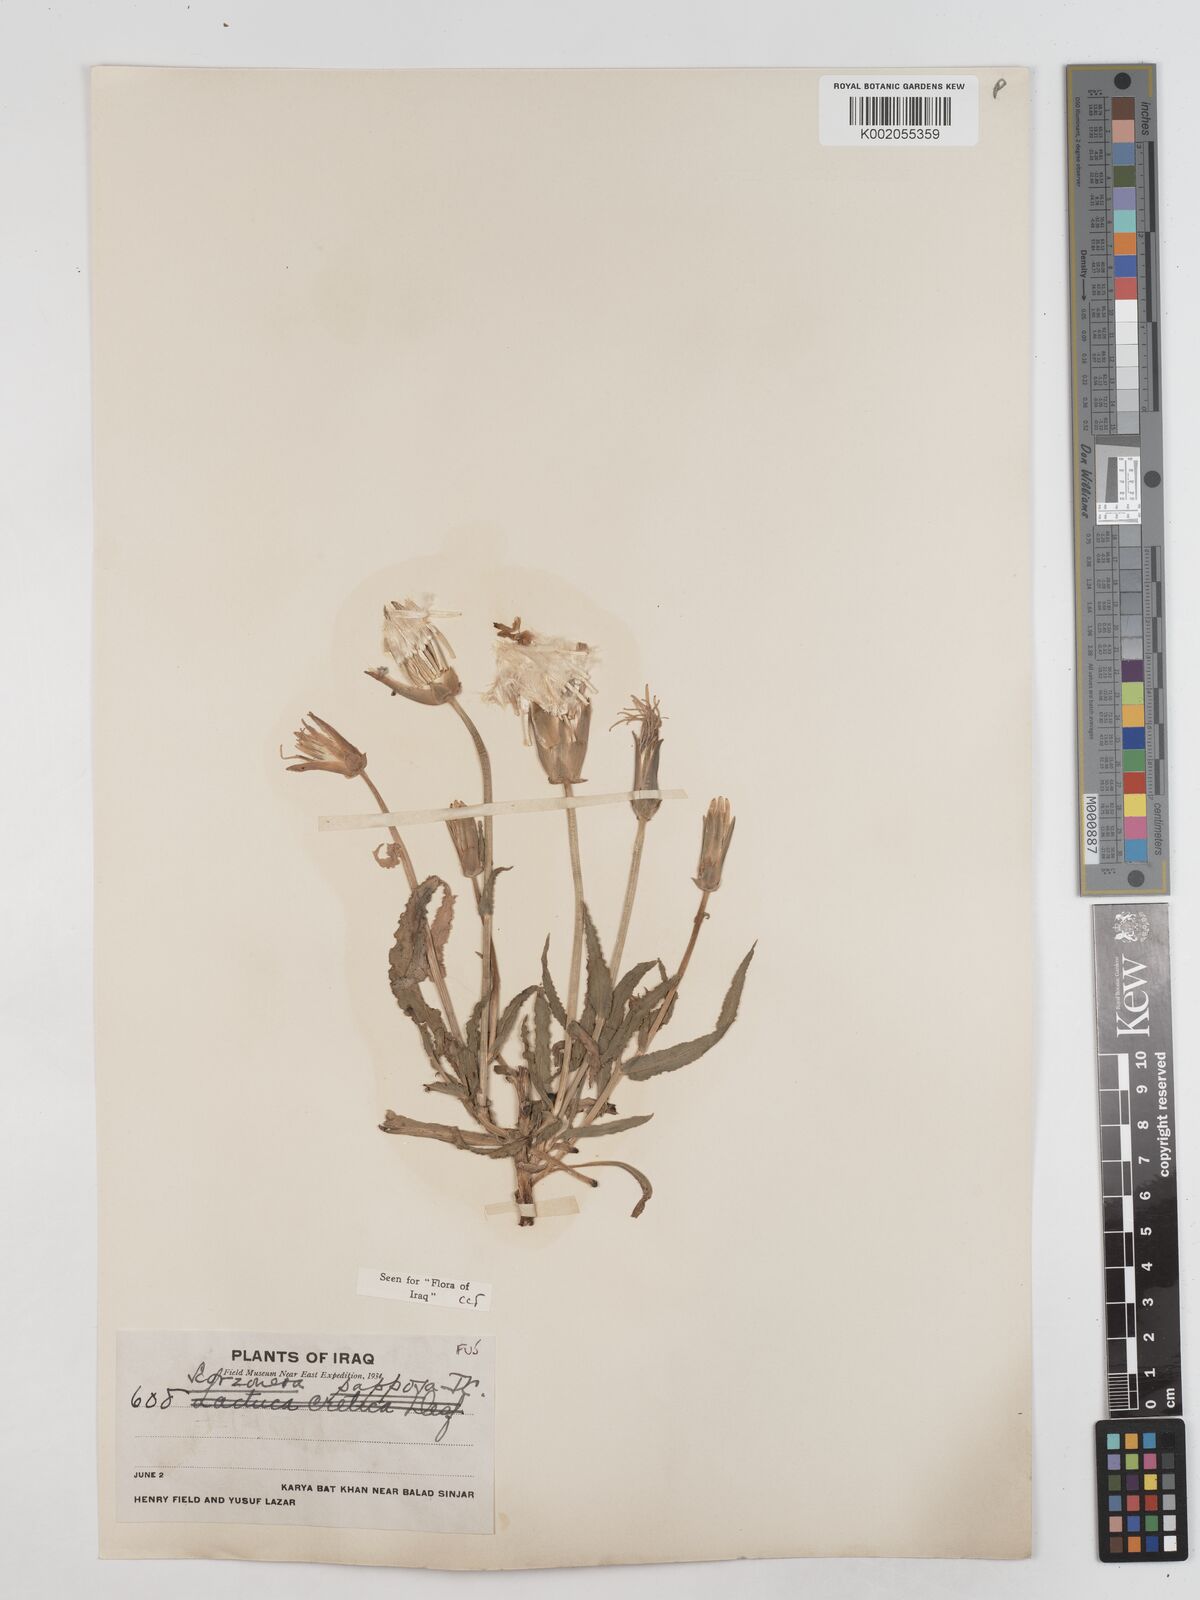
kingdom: Plantae
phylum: Tracheophyta
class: Magnoliopsida
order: Asterales
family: Asteraceae
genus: Pseudopodospermum
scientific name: Pseudopodospermum papposum
